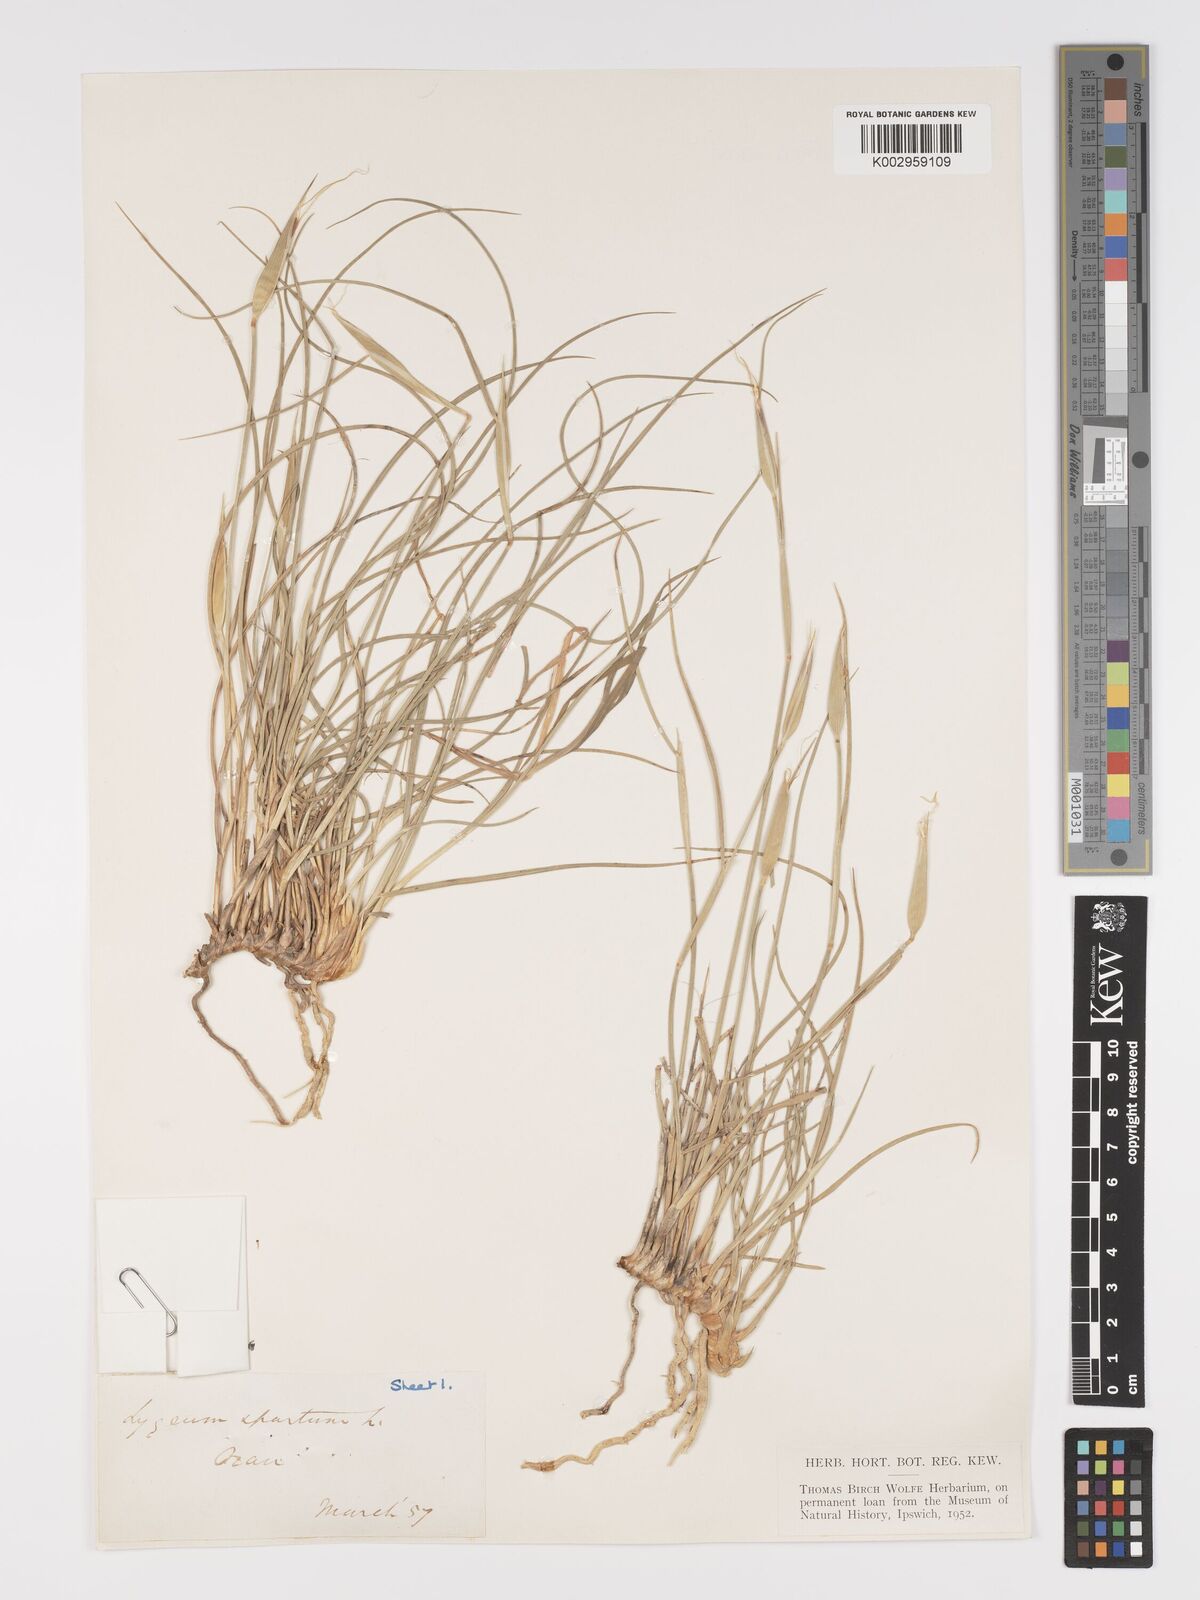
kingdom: Plantae
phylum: Tracheophyta
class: Liliopsida
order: Poales
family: Poaceae
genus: Lygeum
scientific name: Lygeum spartum
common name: Albardine
